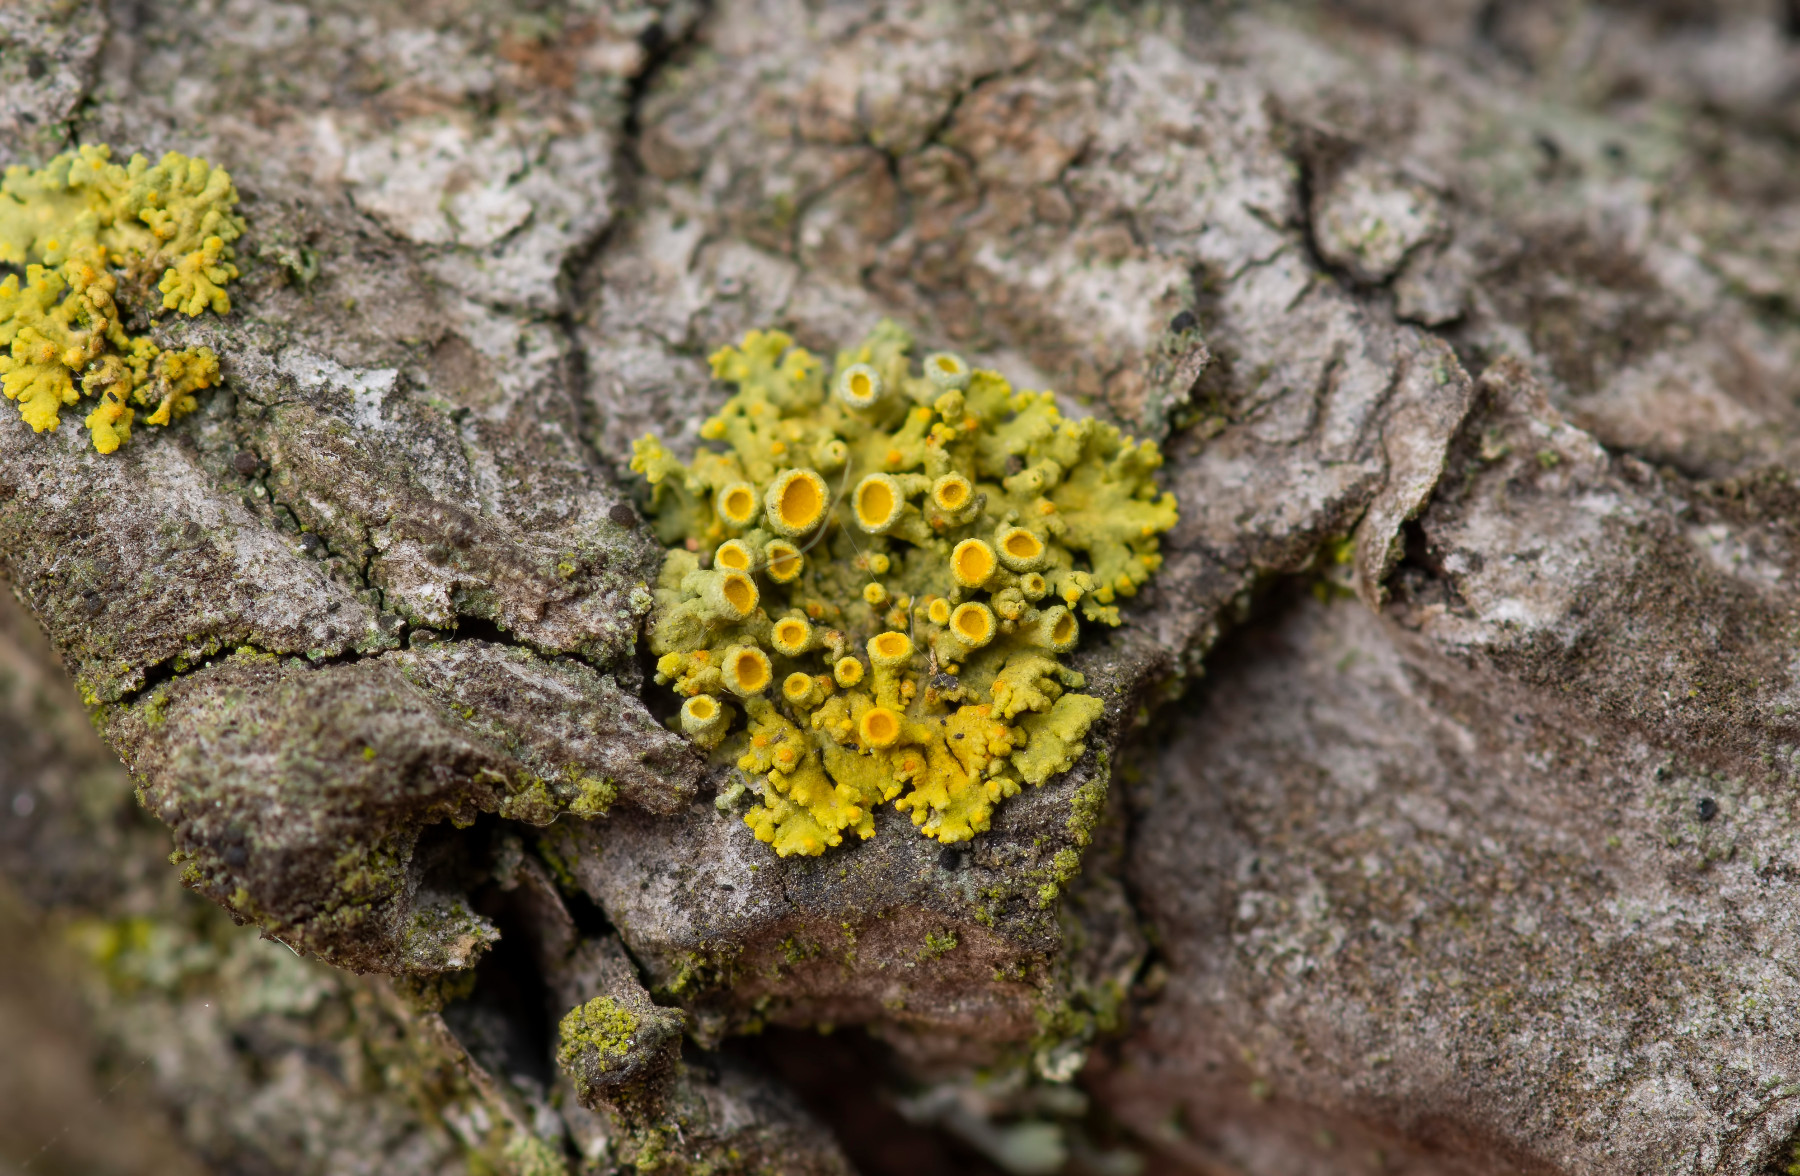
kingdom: Fungi
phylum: Ascomycota
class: Lecanoromycetes
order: Teloschistales
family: Teloschistaceae
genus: Polycauliona
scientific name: Polycauliona polycarpa
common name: mangefrugtet orangelav
